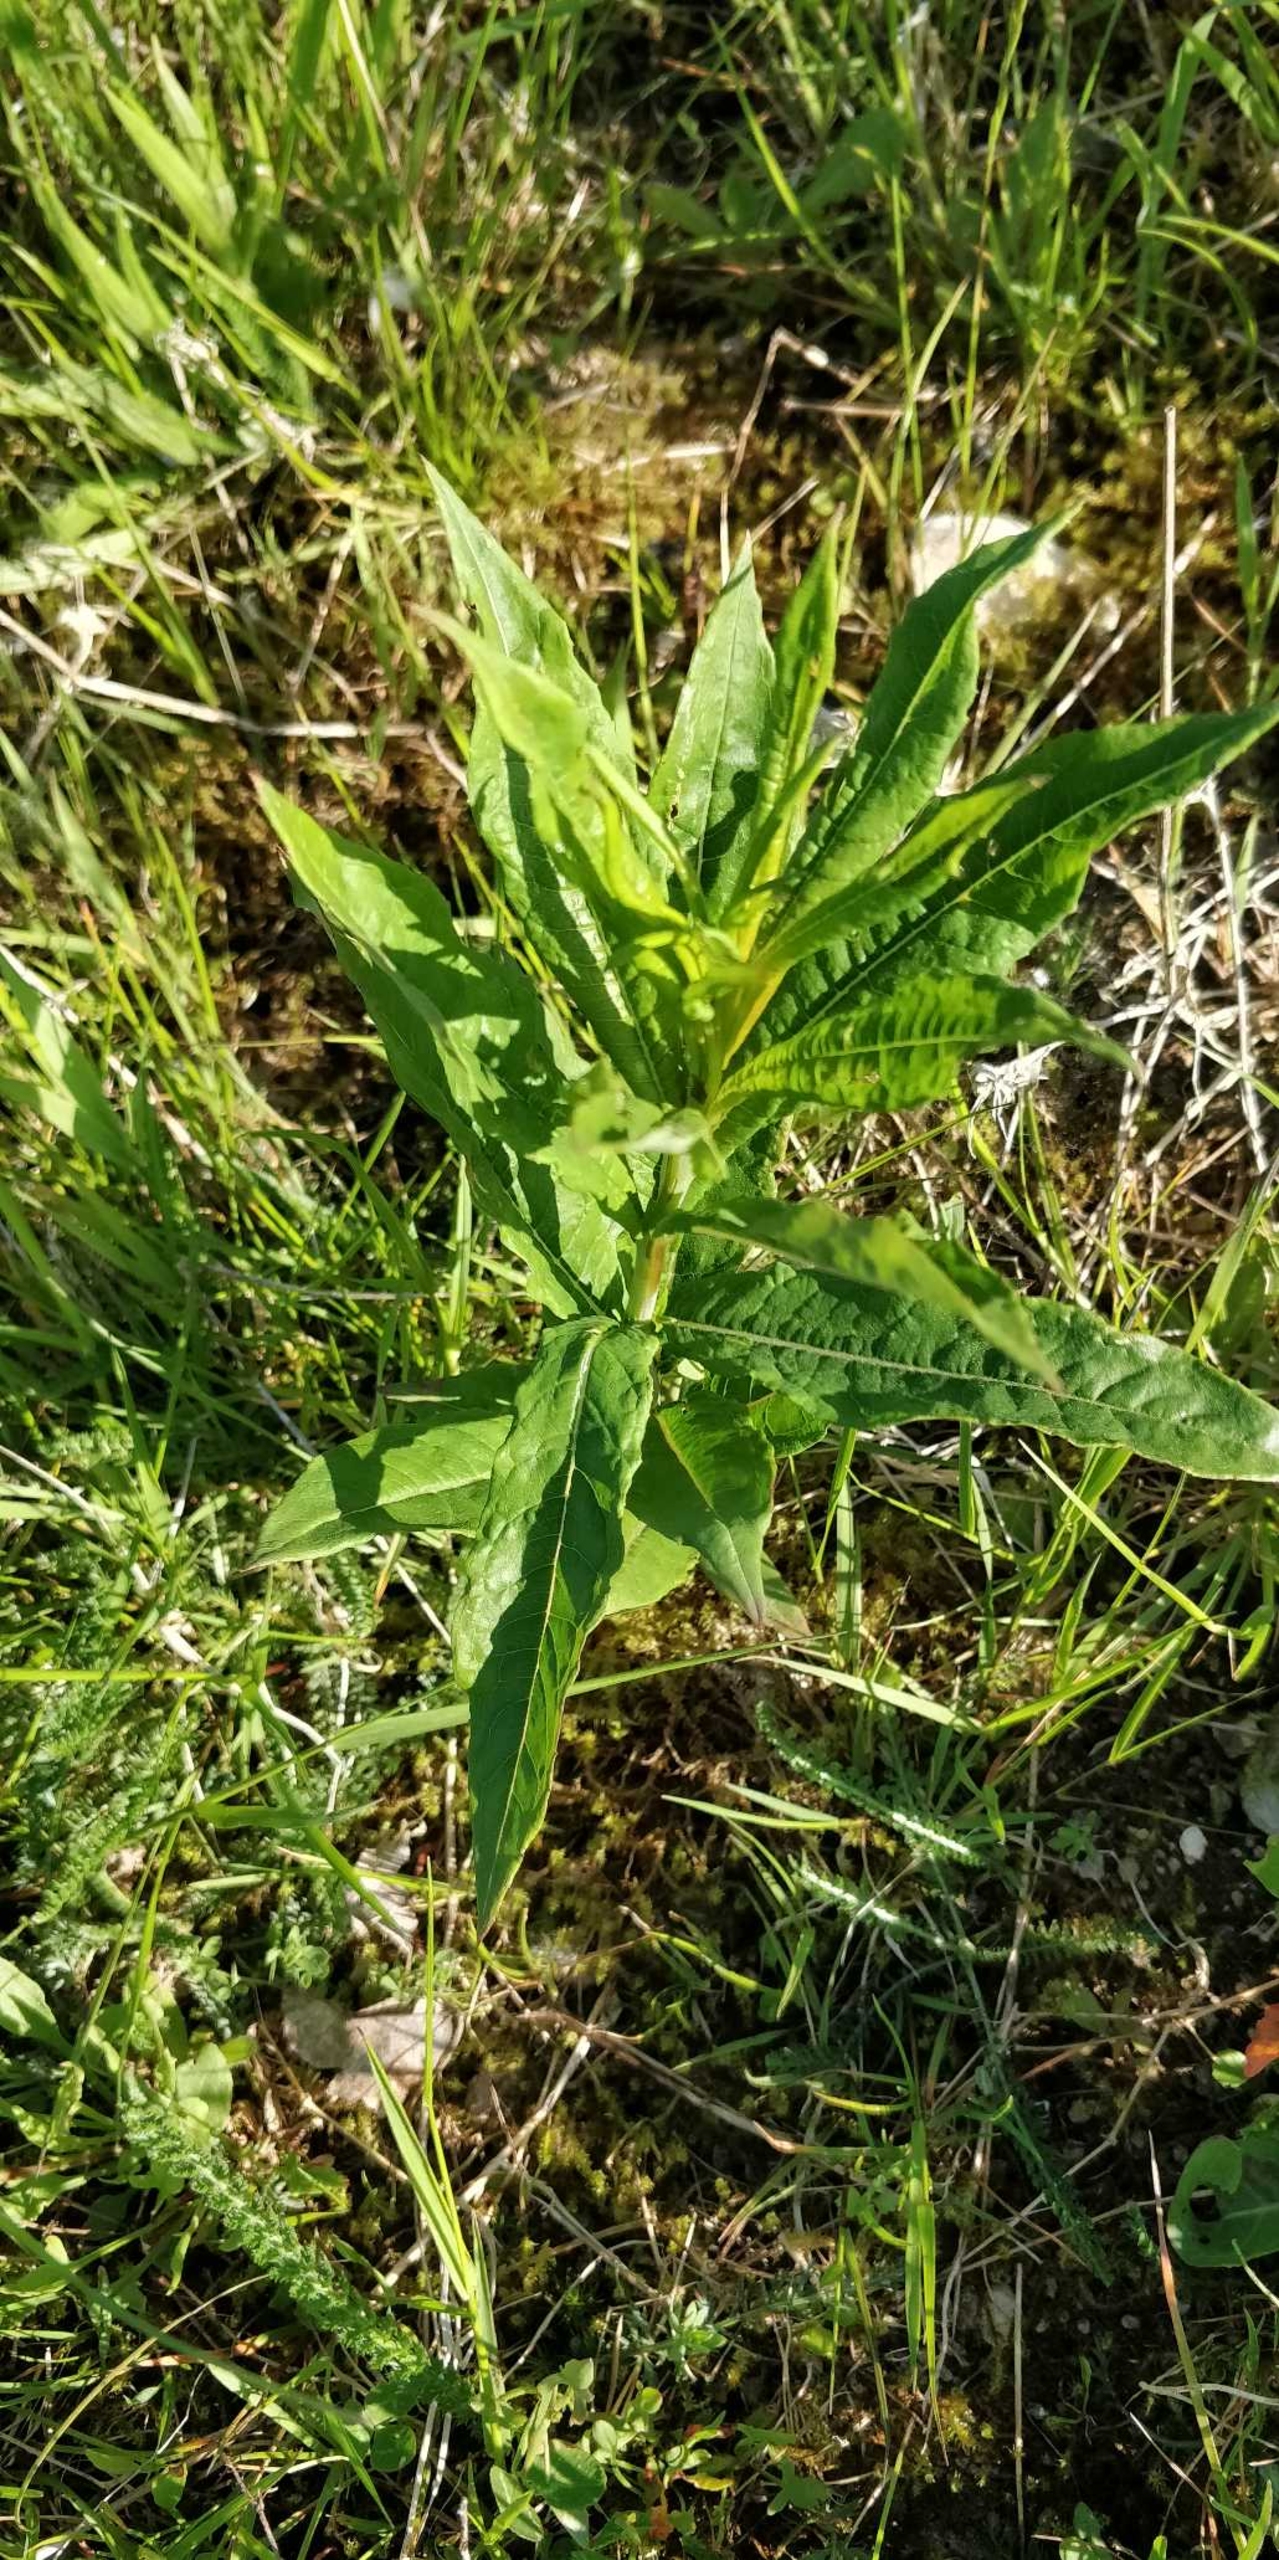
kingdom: Plantae
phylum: Tracheophyta
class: Magnoliopsida
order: Myrtales
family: Onagraceae
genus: Chamaenerion
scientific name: Chamaenerion angustifolium
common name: Gederams
